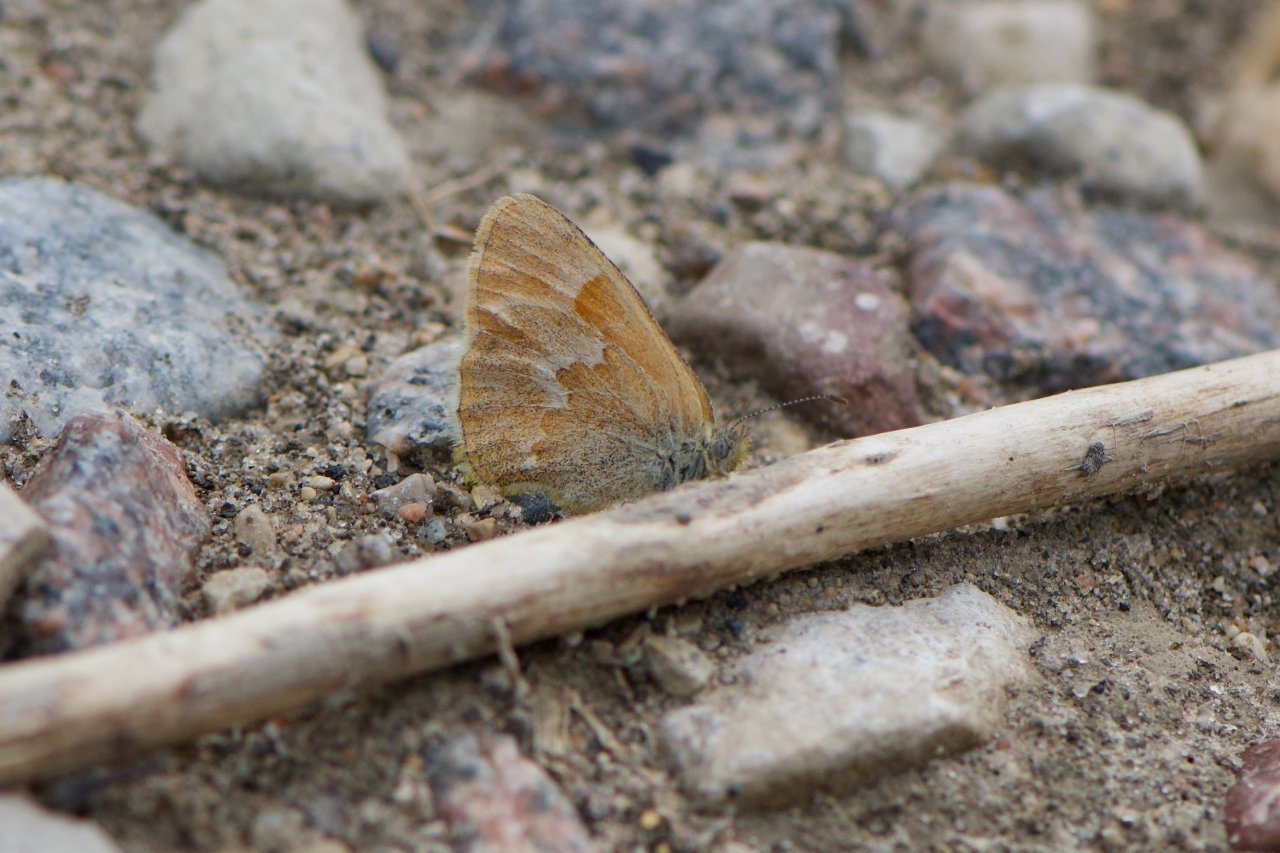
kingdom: Animalia
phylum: Arthropoda
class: Insecta
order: Lepidoptera
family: Nymphalidae
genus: Coenonympha
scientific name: Coenonympha tullia
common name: Large Heath
